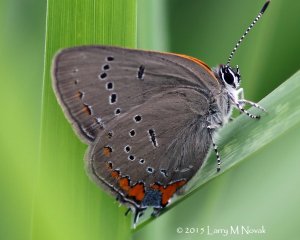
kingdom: Animalia
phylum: Arthropoda
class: Insecta
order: Lepidoptera
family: Lycaenidae
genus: Strymon
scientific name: Strymon acadica
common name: Acadian Hairstreak
